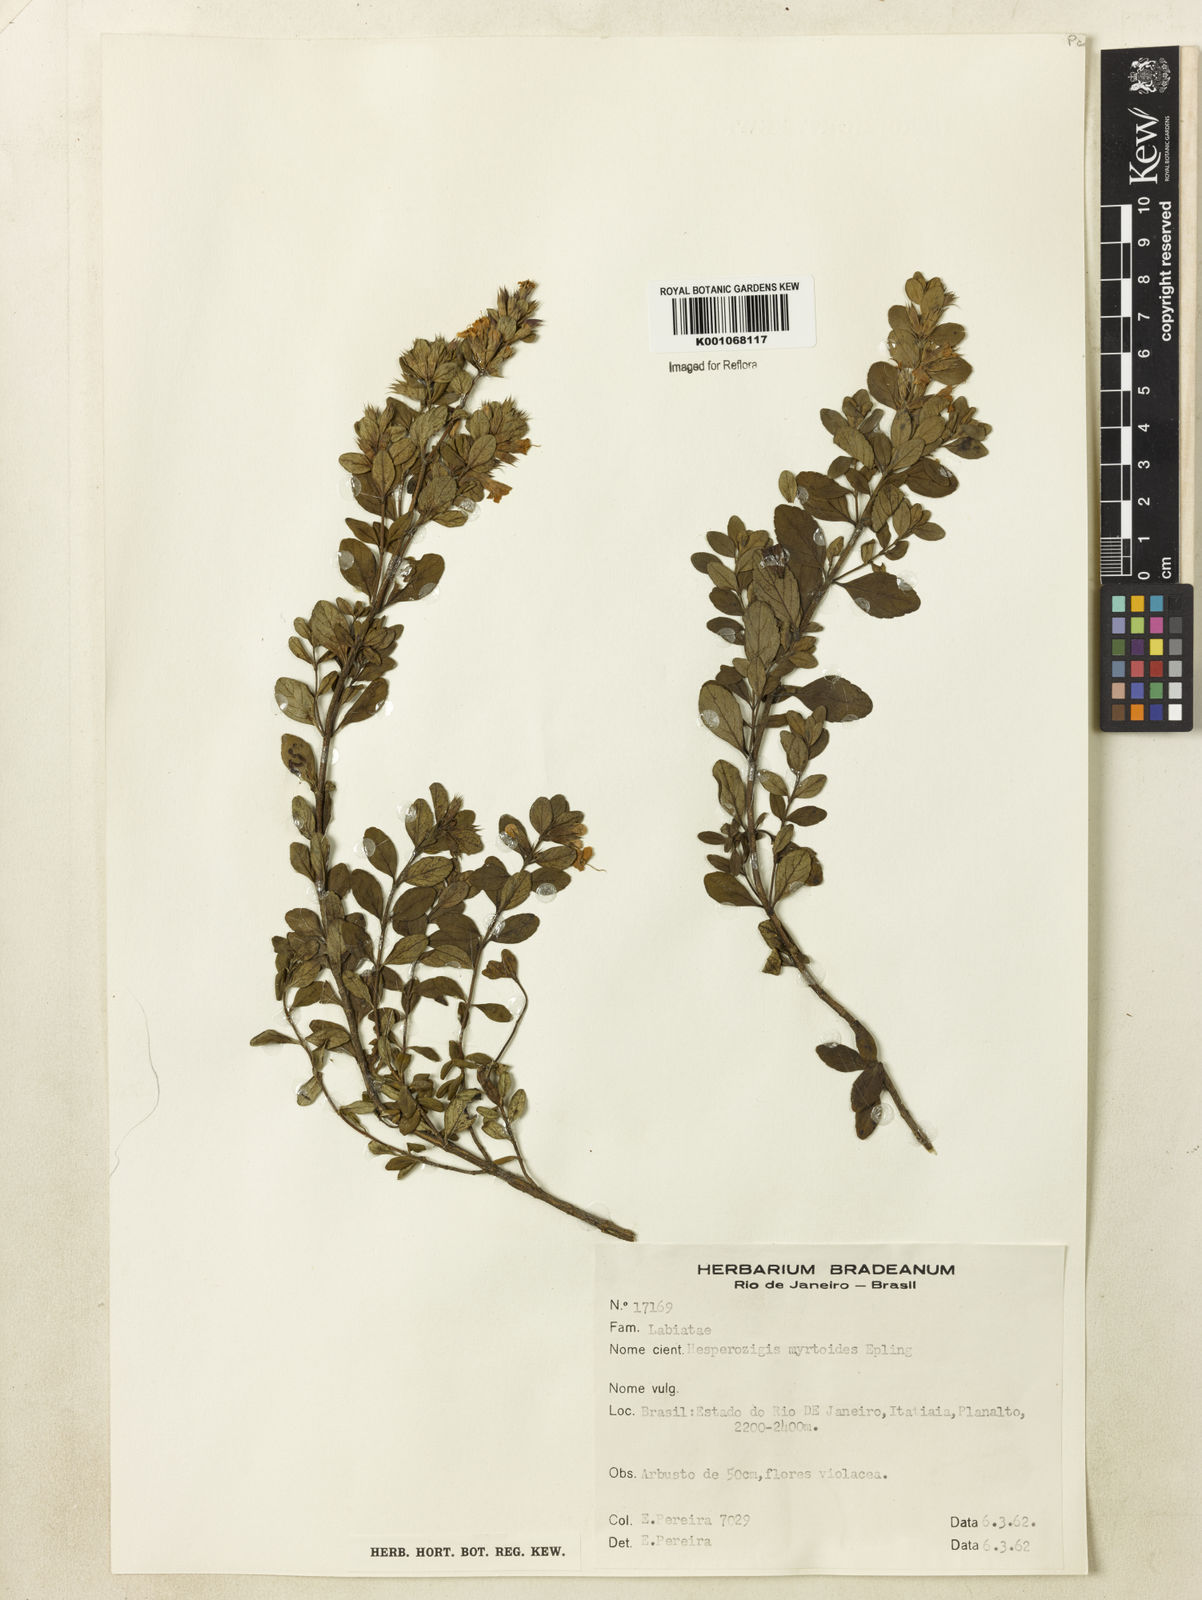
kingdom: Plantae
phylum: Tracheophyta
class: Magnoliopsida
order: Lamiales
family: Lamiaceae
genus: Hesperozygis
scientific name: Hesperozygis myrtoides
